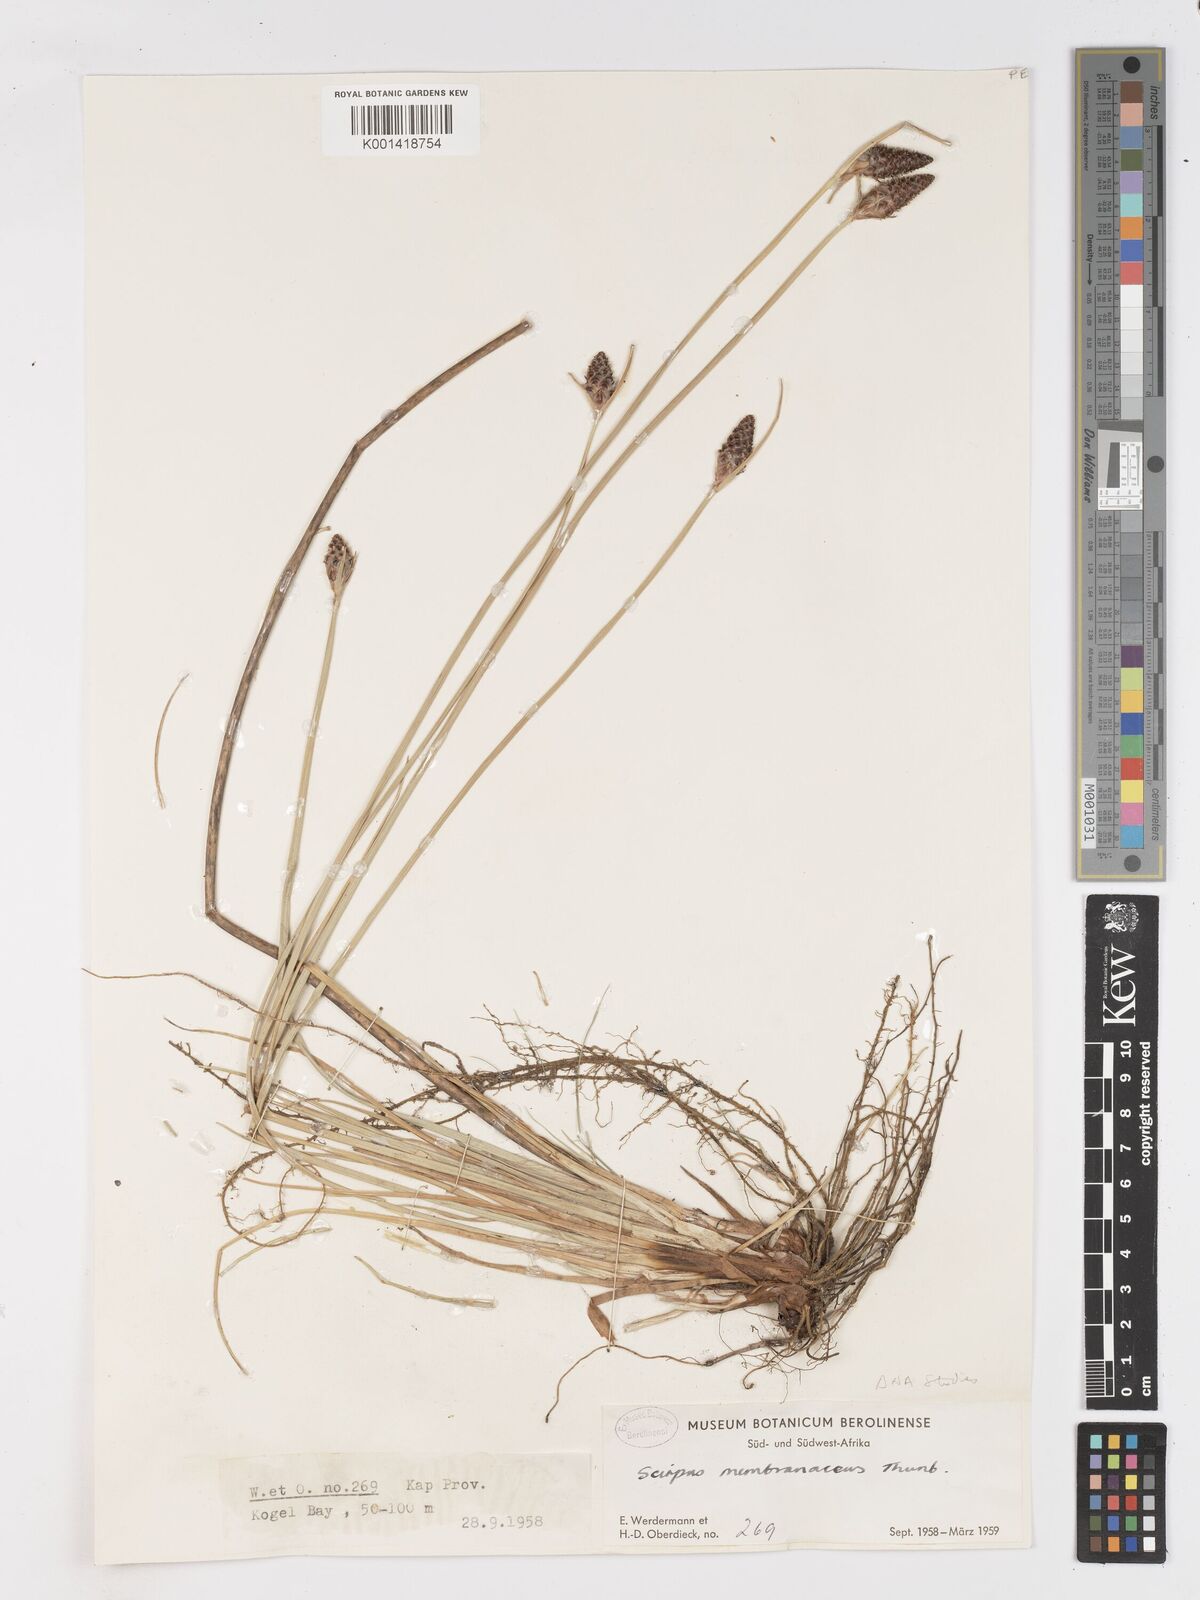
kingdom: Plantae
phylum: Tracheophyta
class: Liliopsida
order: Poales
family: Cyperaceae
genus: Hellmuthia
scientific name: Hellmuthia membranacea
